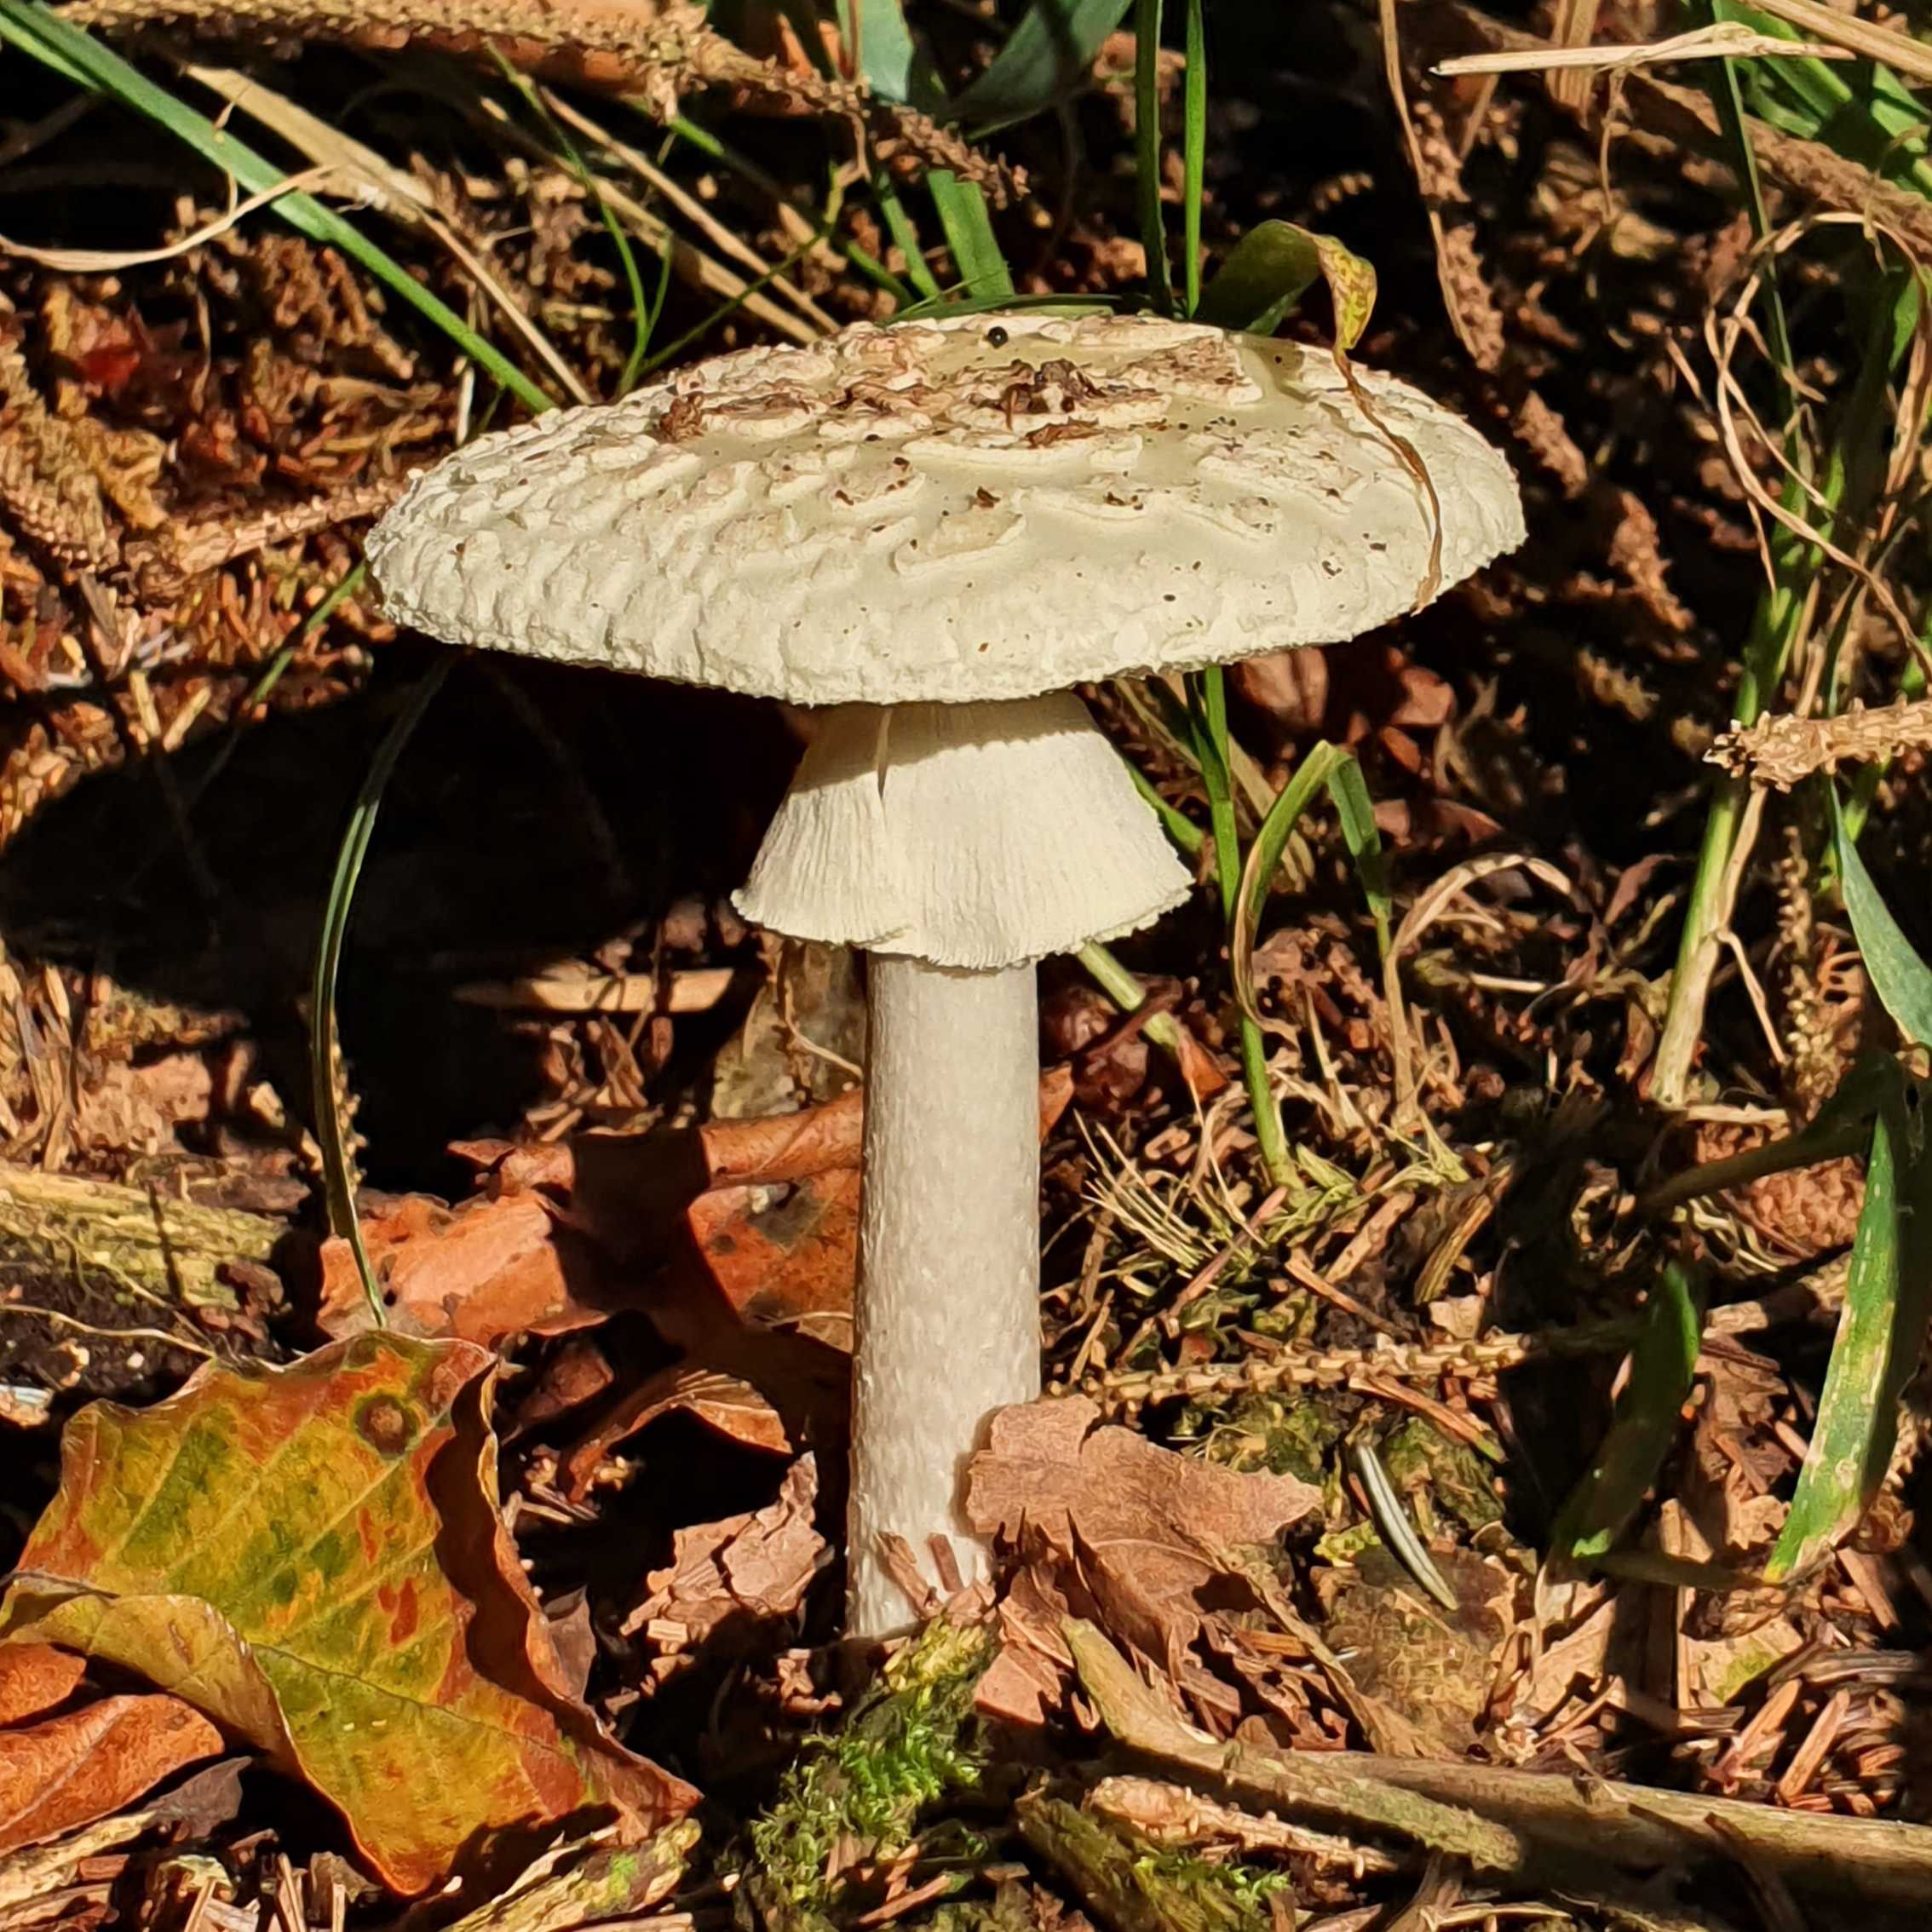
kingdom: Fungi
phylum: Basidiomycota
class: Agaricomycetes
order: Agaricales
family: Amanitaceae
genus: Amanita
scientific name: Amanita citrina
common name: kugleknoldet fluesvamp
